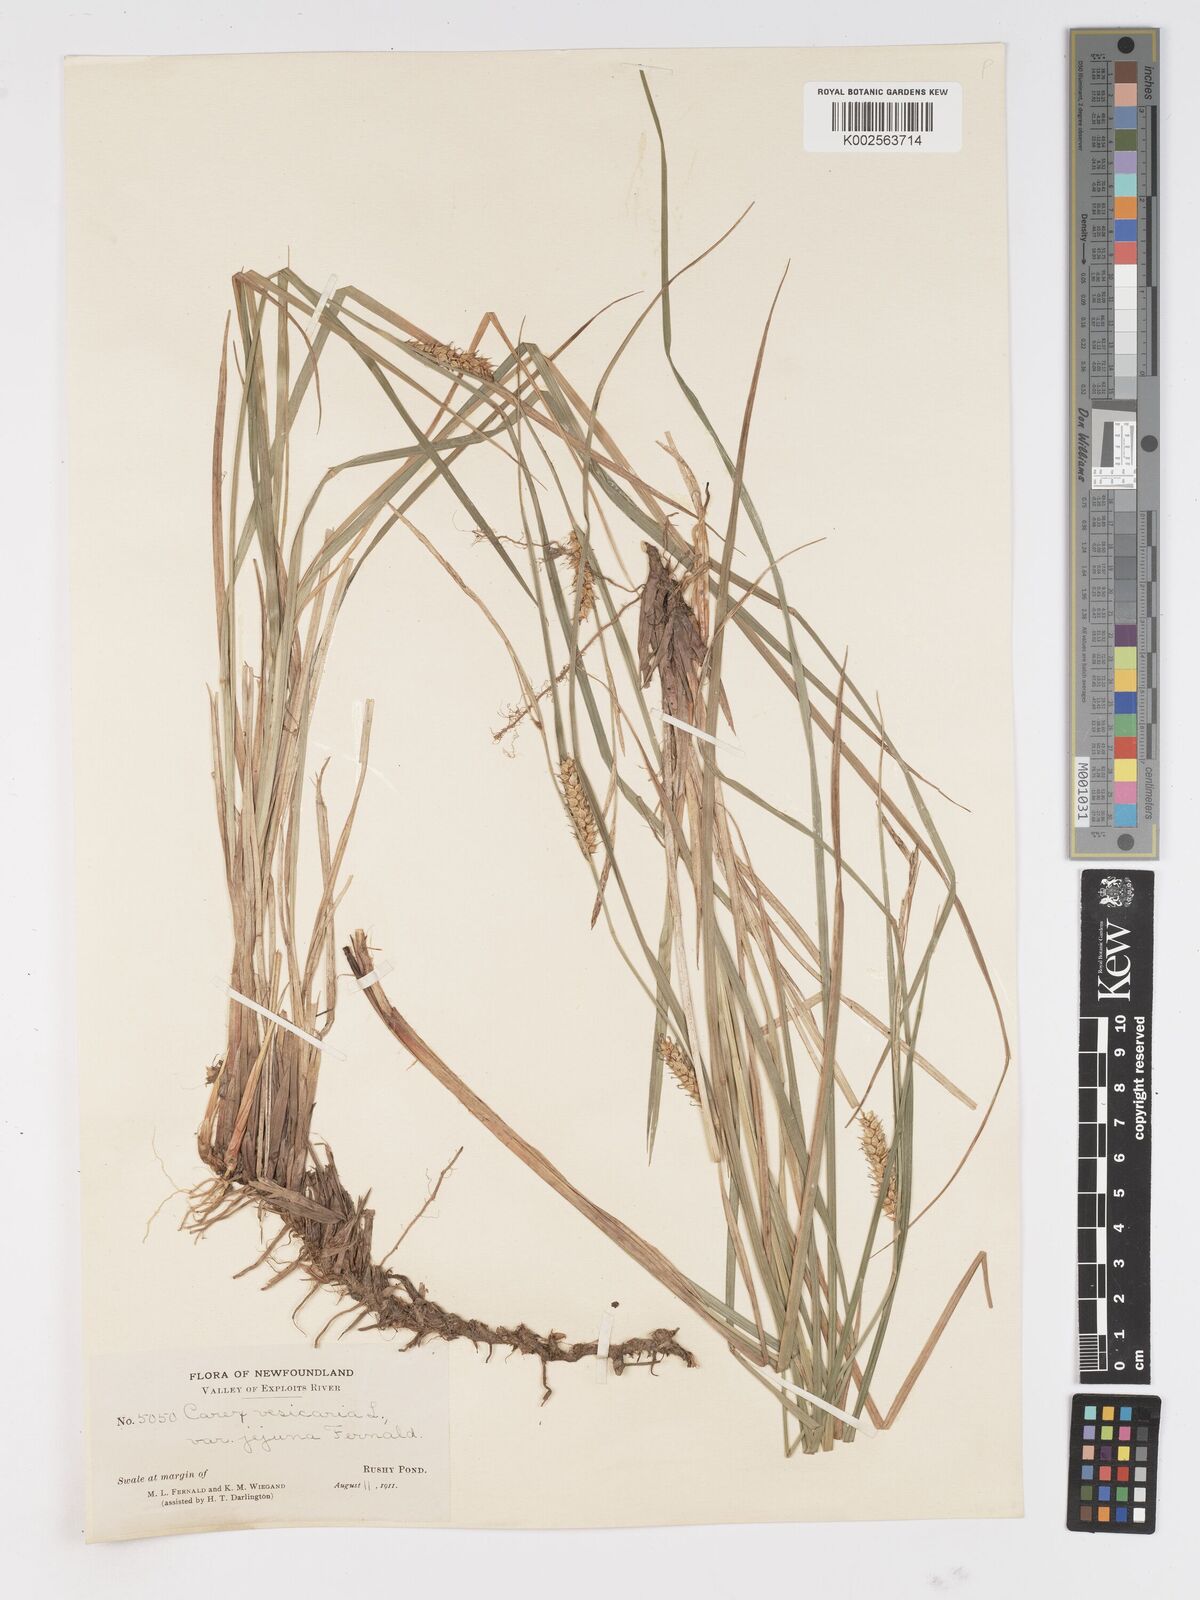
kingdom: Plantae
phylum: Tracheophyta
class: Liliopsida
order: Poales
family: Cyperaceae
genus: Carex
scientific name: Carex vesicaria
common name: Bladder-sedge
